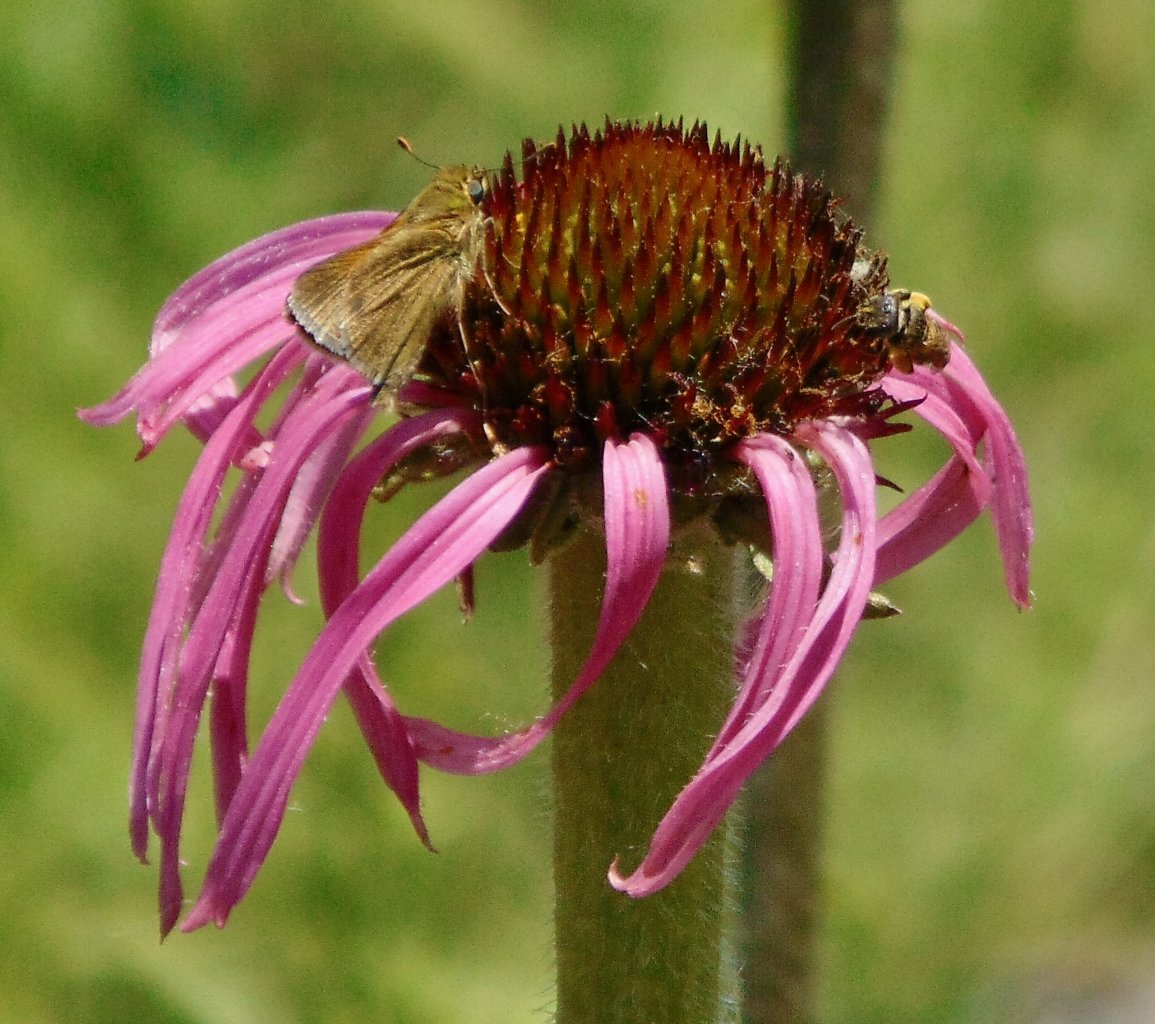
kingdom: Animalia
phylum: Arthropoda
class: Insecta
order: Lepidoptera
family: Hesperiidae
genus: Polites
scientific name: Polites themistocles
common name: Tawny-edged Skipper
